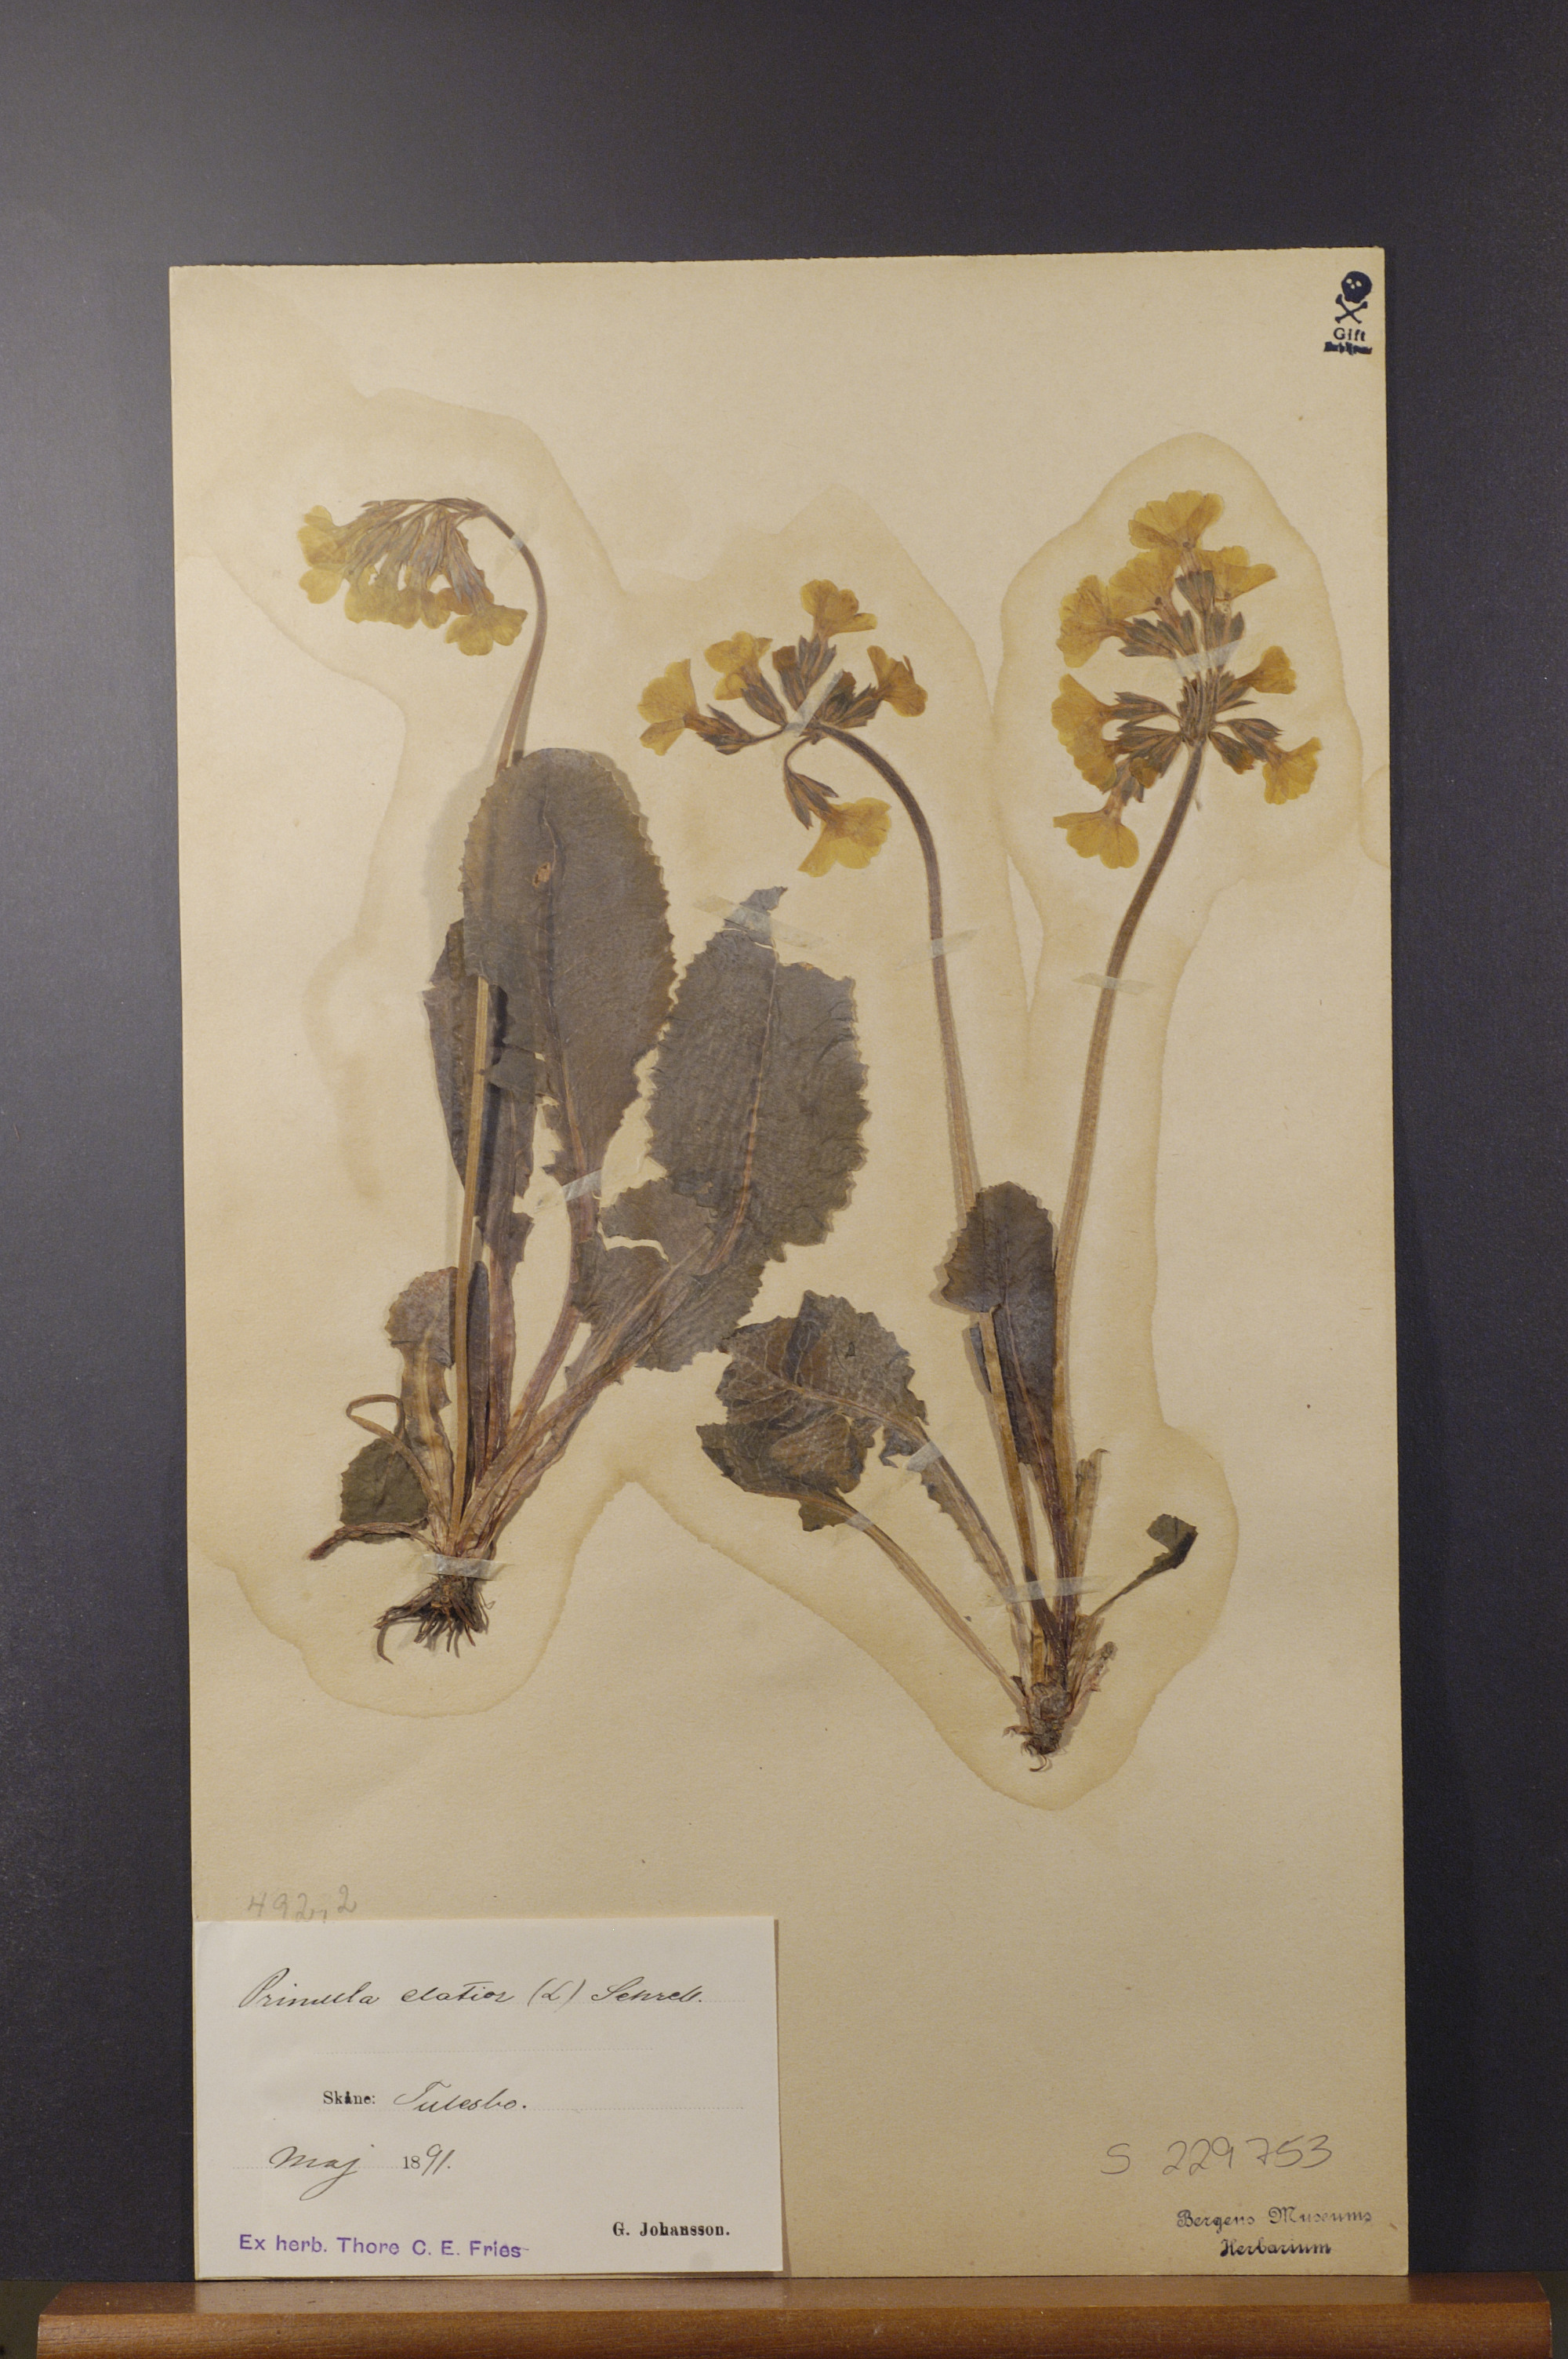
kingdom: Plantae
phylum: Tracheophyta
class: Magnoliopsida
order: Ericales
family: Primulaceae
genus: Primula
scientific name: Primula elatior
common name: Oxlip
